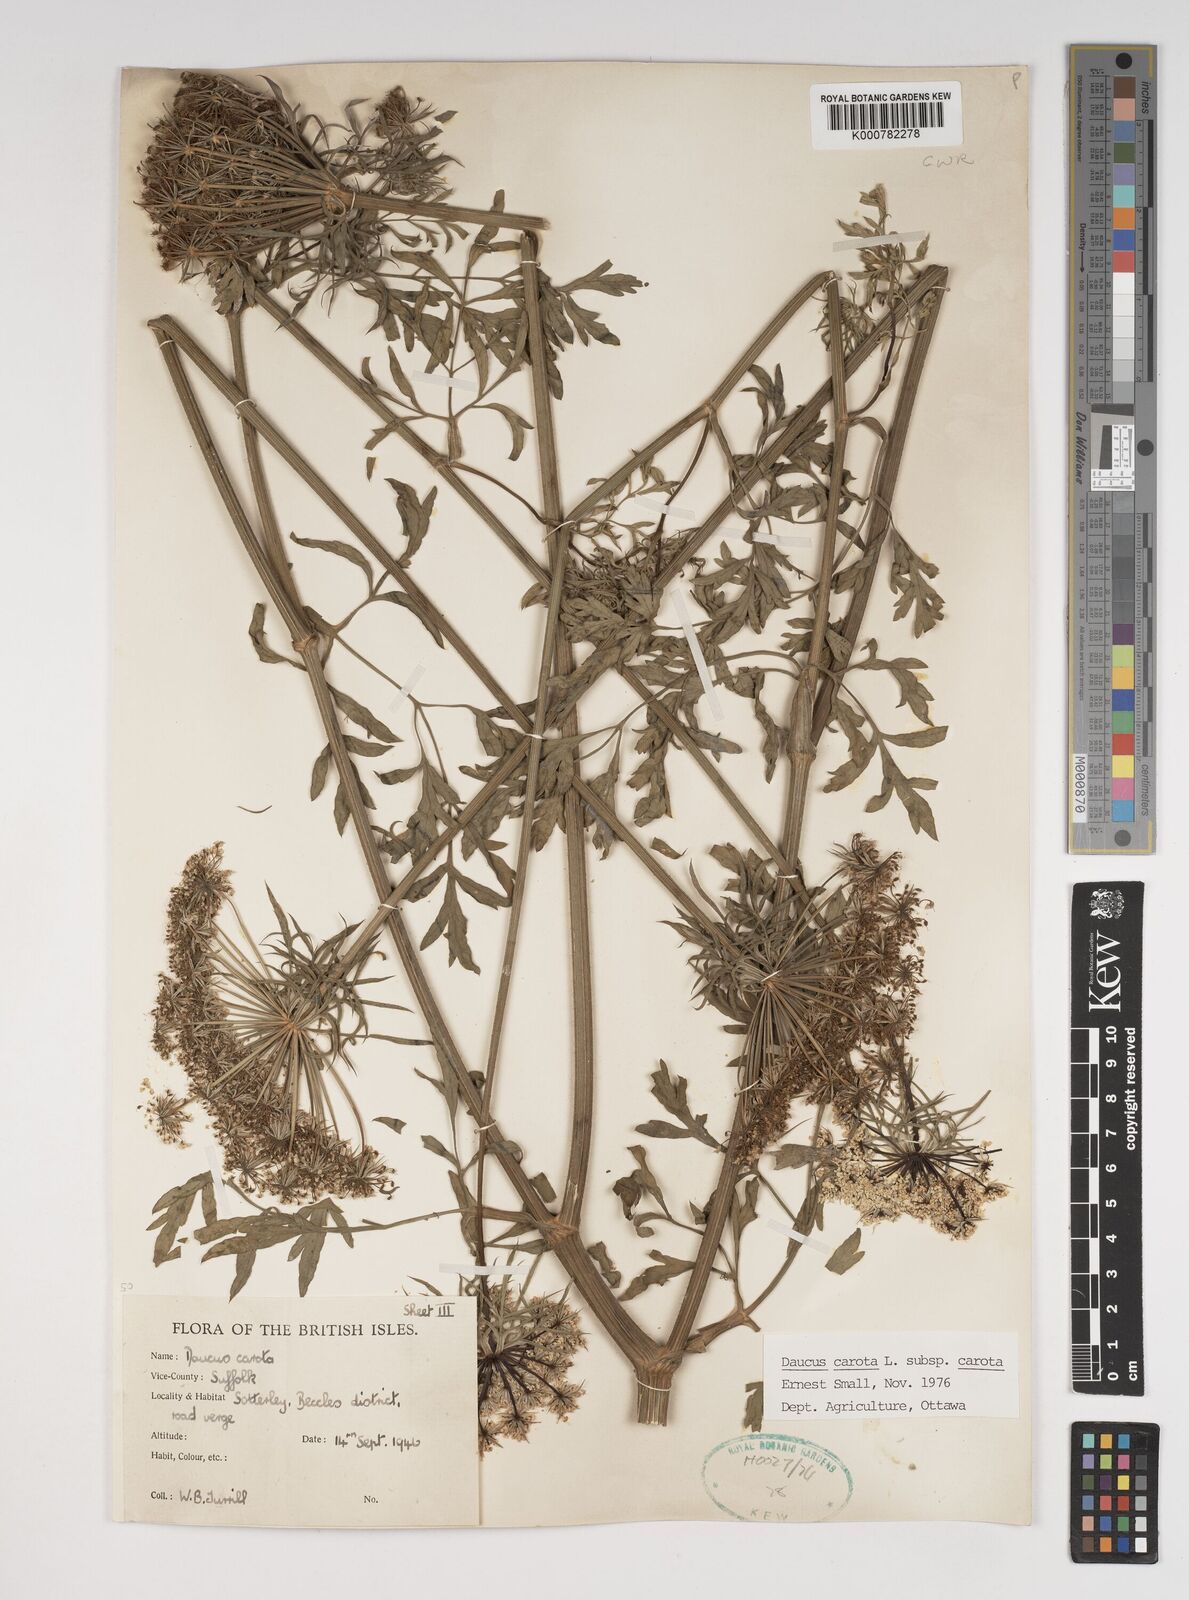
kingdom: Plantae
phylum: Tracheophyta
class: Magnoliopsida
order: Apiales
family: Apiaceae
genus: Daucus
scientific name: Daucus carota
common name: Wild carrot
